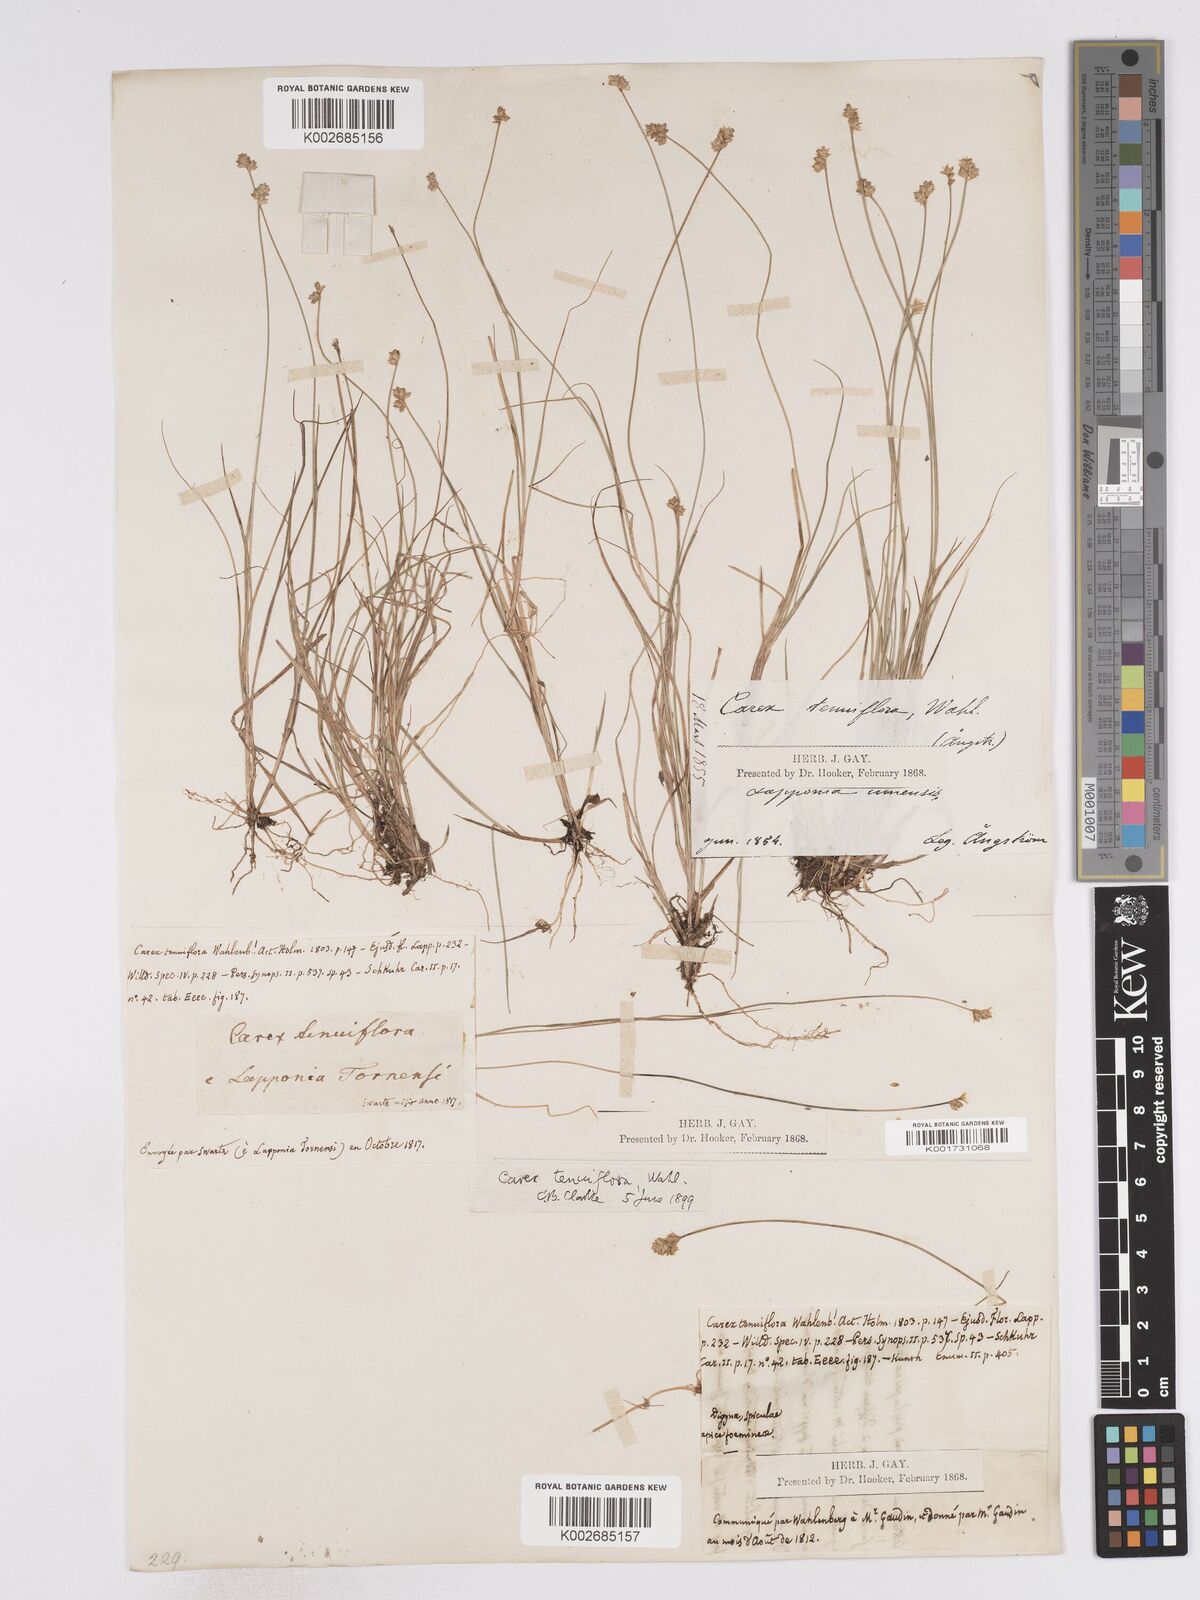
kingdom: Plantae
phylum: Tracheophyta
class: Liliopsida
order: Poales
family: Cyperaceae
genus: Carex
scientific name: Carex tenuiflora
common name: Sparse-flowered sedge
